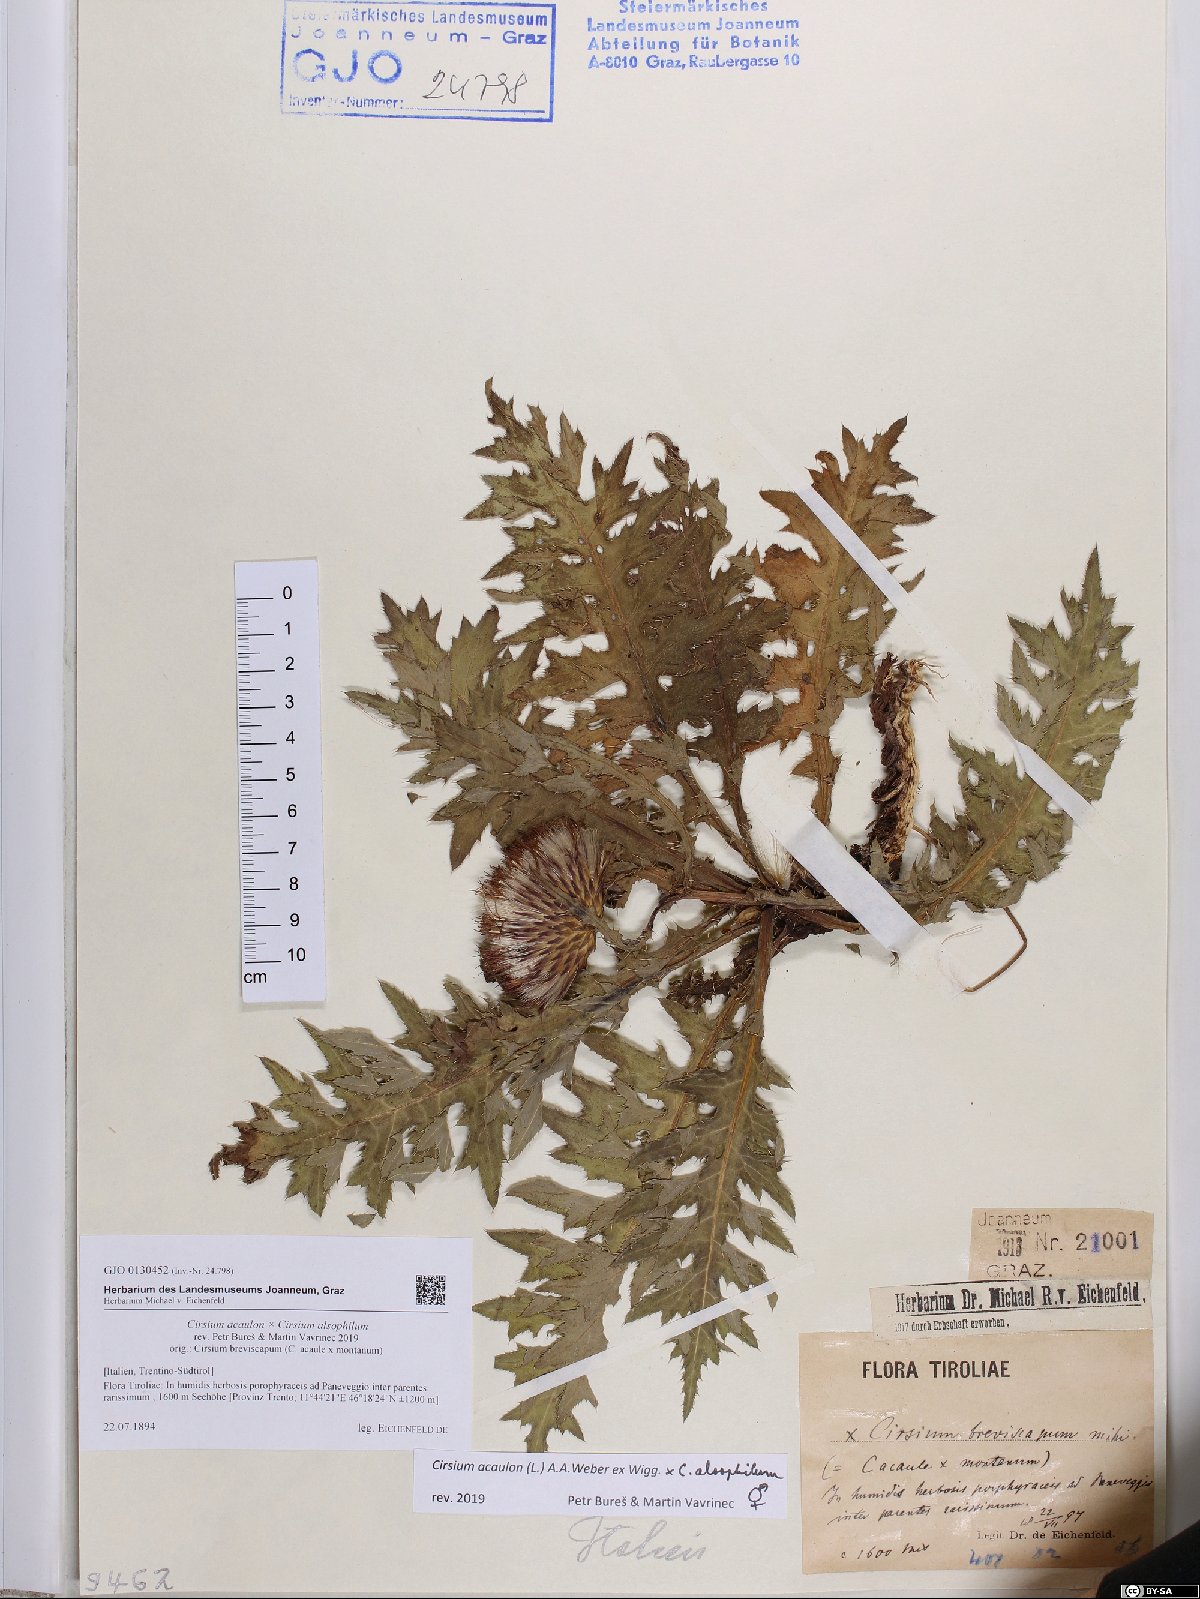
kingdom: Plantae
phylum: Tracheophyta
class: Magnoliopsida
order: Asterales
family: Asteraceae
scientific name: Asteraceae
